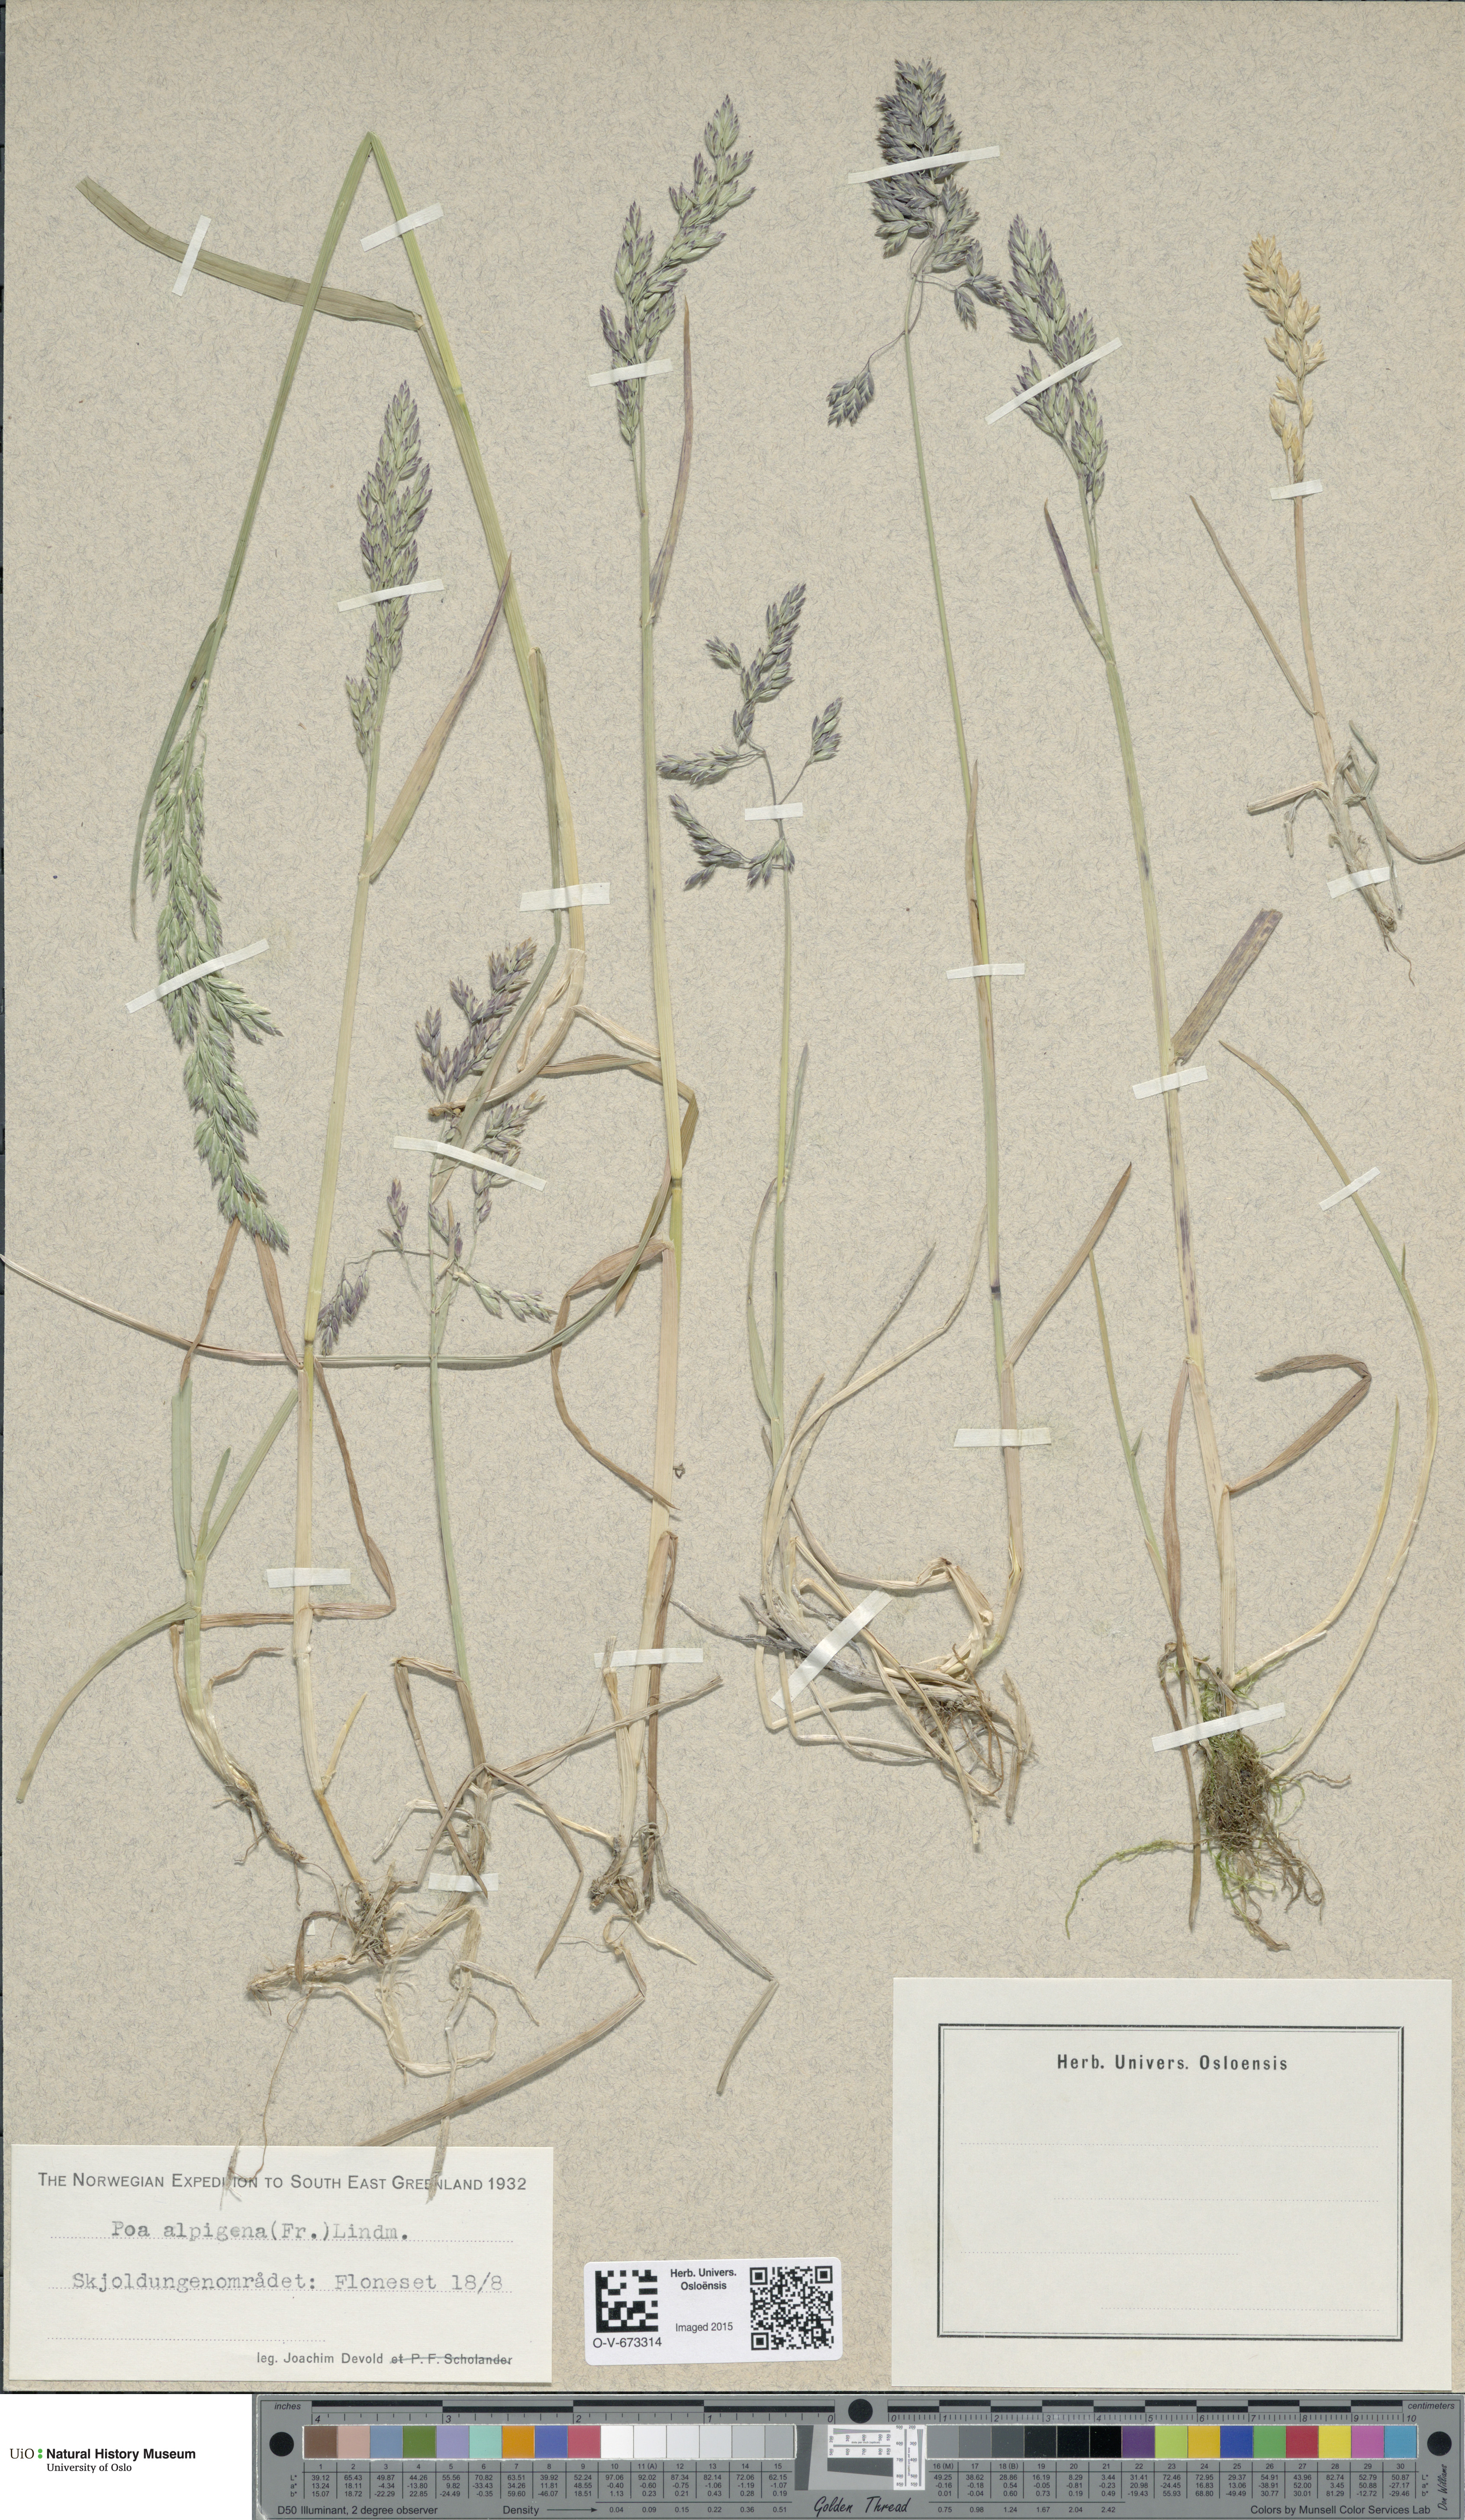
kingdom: Plantae
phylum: Tracheophyta
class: Liliopsida
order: Poales
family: Poaceae
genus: Poa
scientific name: Poa alpigena
